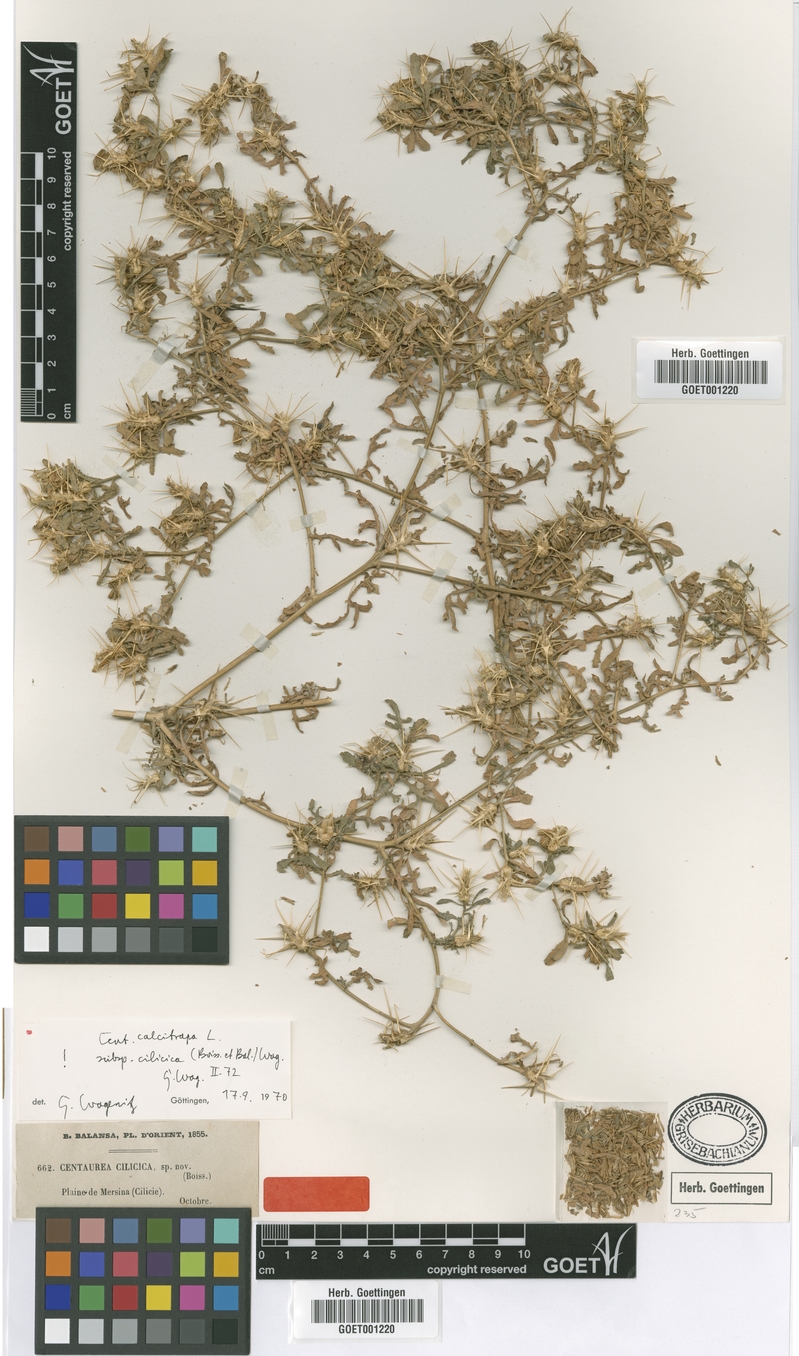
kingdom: Plantae
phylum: Tracheophyta
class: Magnoliopsida
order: Asterales
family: Asteraceae
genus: Centaurea
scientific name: Centaurea calcitrapa
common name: Red star-thistle
